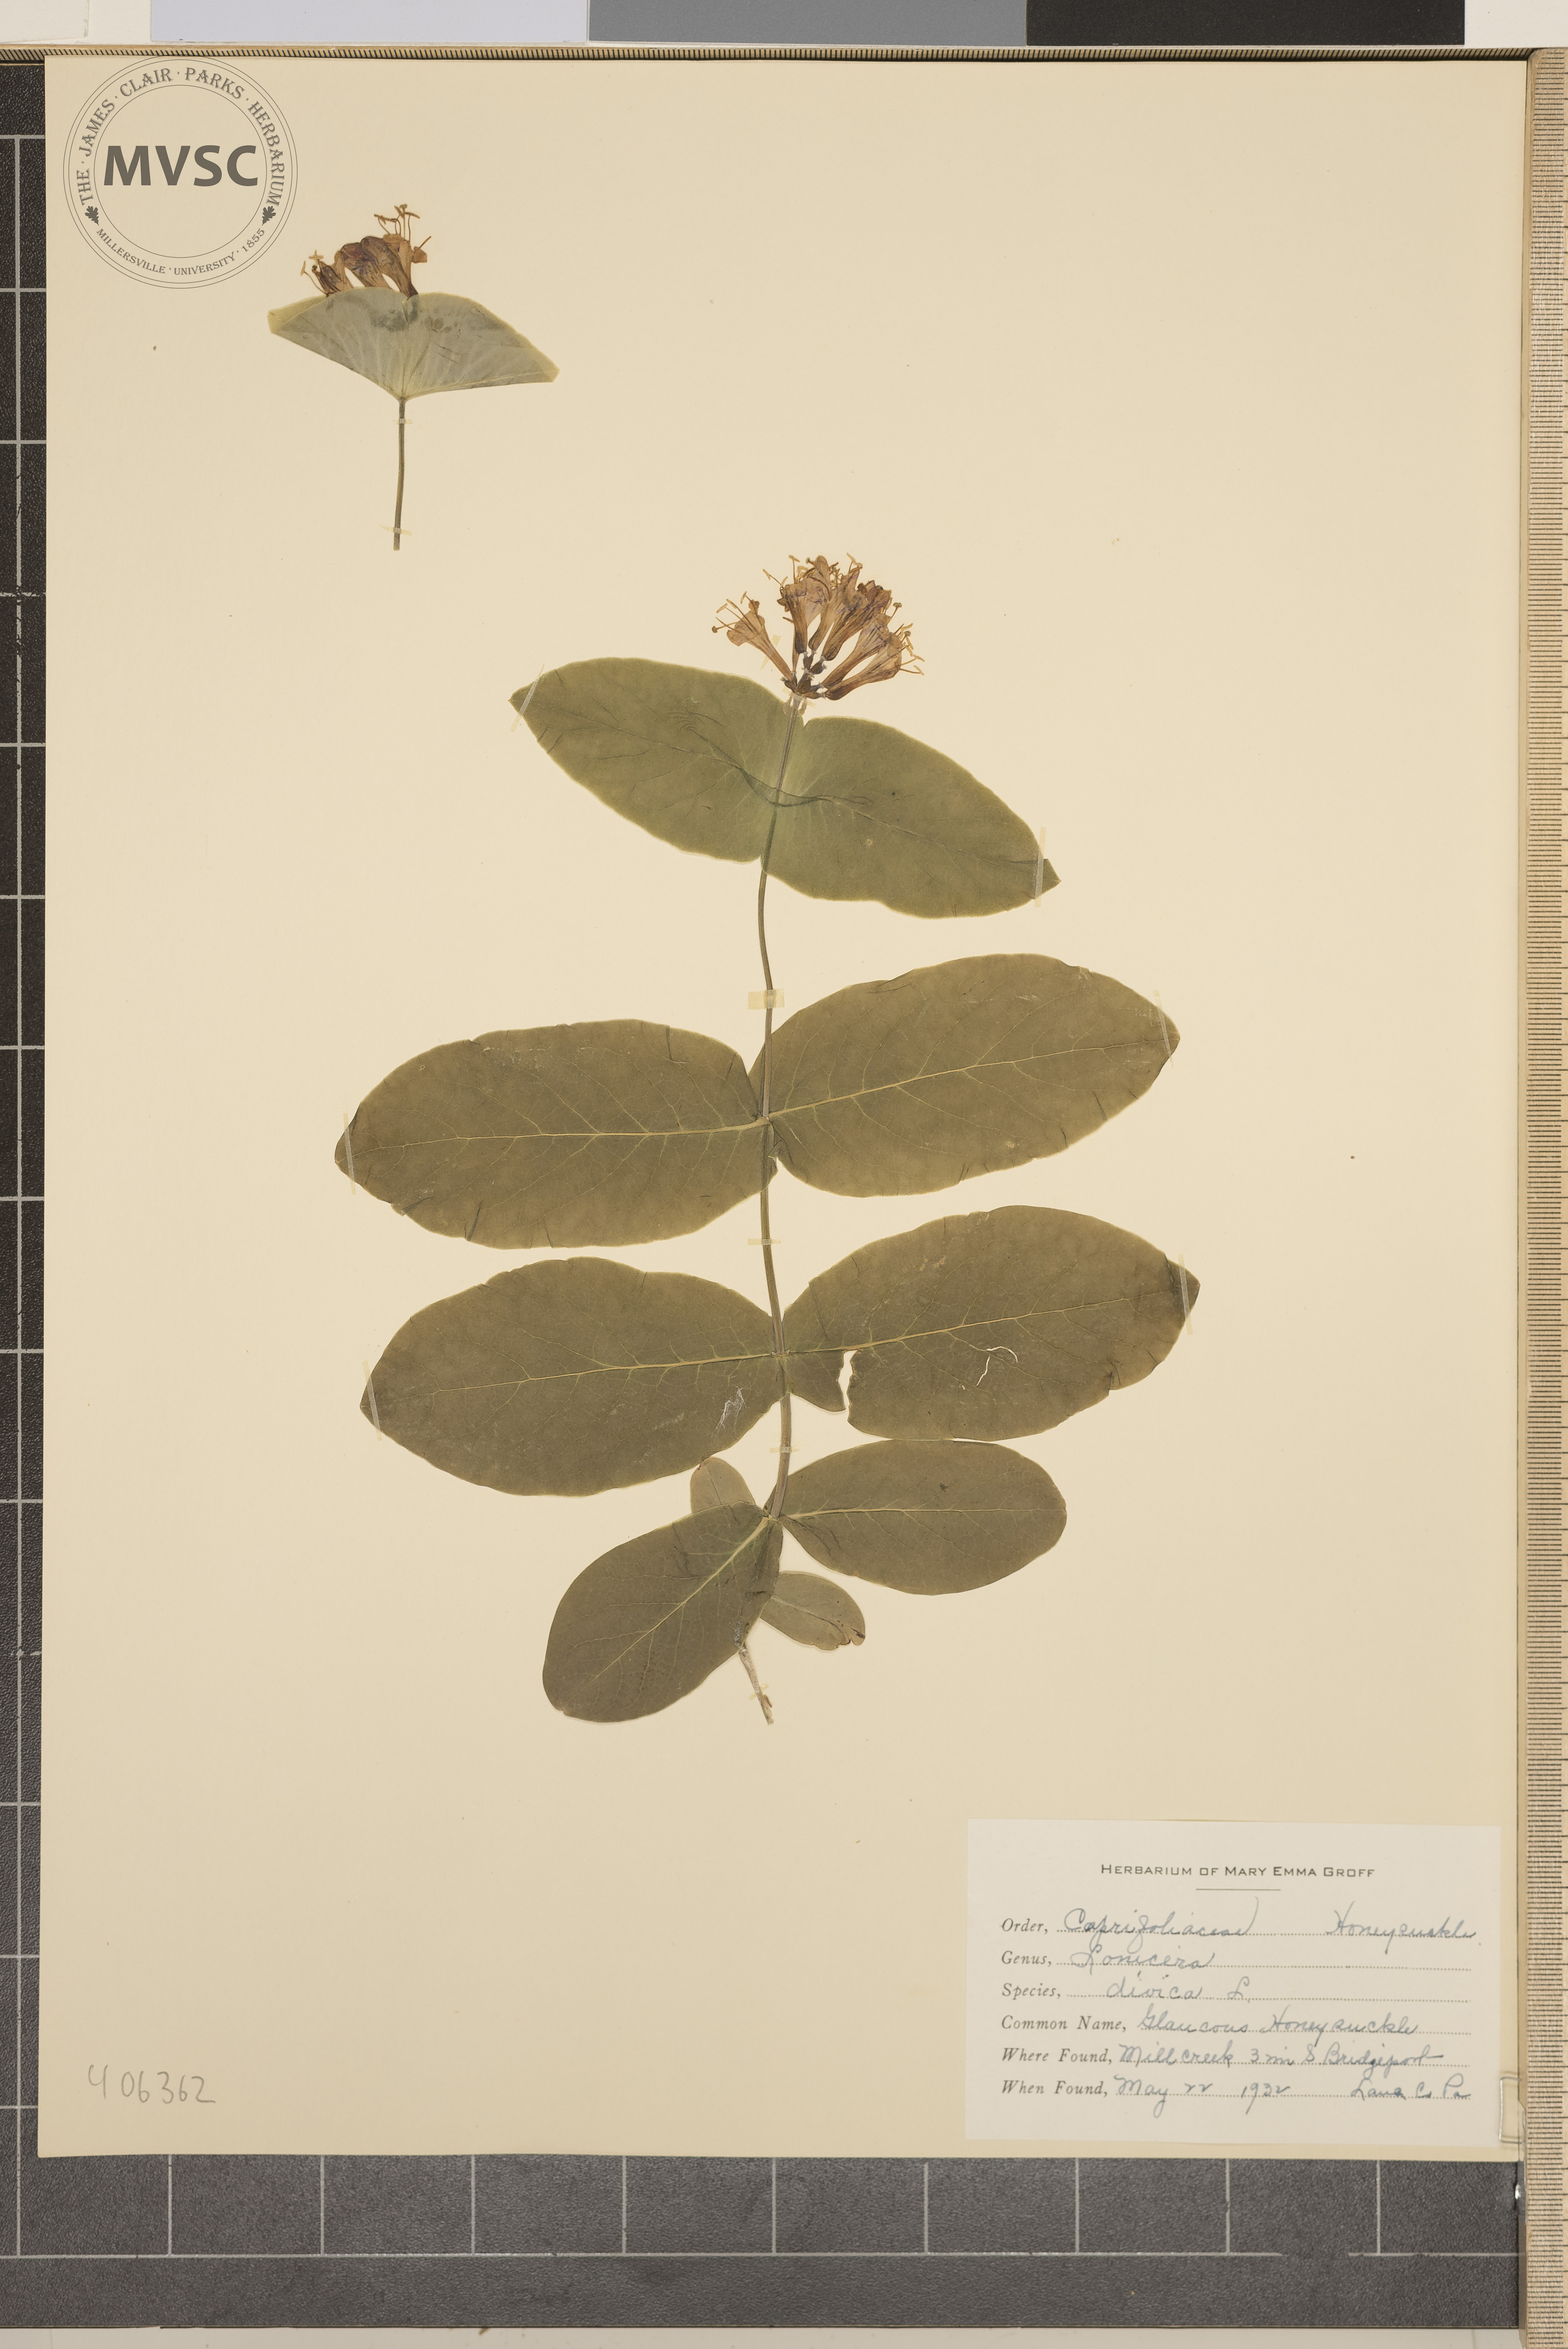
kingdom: Plantae
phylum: Tracheophyta
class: Magnoliopsida
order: Dipsacales
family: Caprifoliaceae
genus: Lonicera
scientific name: Lonicera dioica
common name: Glaucous Honeysuckle
